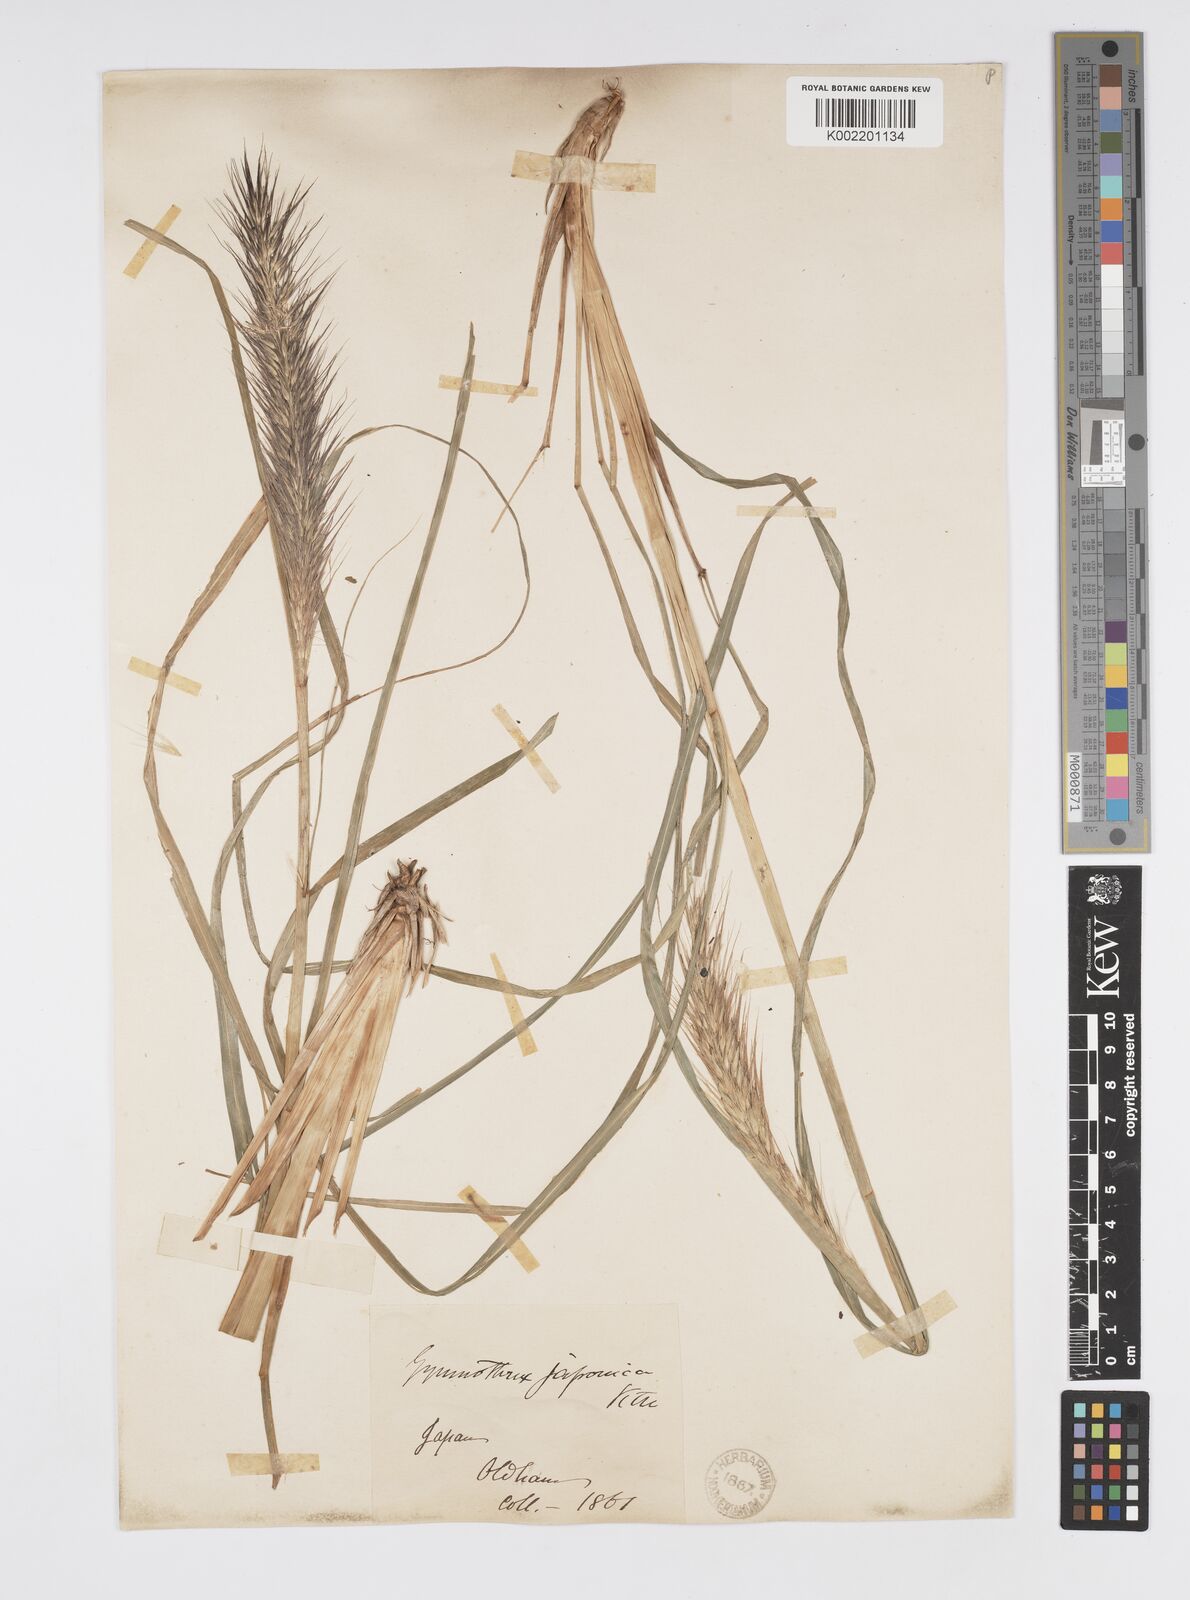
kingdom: Plantae
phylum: Tracheophyta
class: Liliopsida
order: Poales
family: Poaceae
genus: Cenchrus
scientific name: Cenchrus alopecuroides
